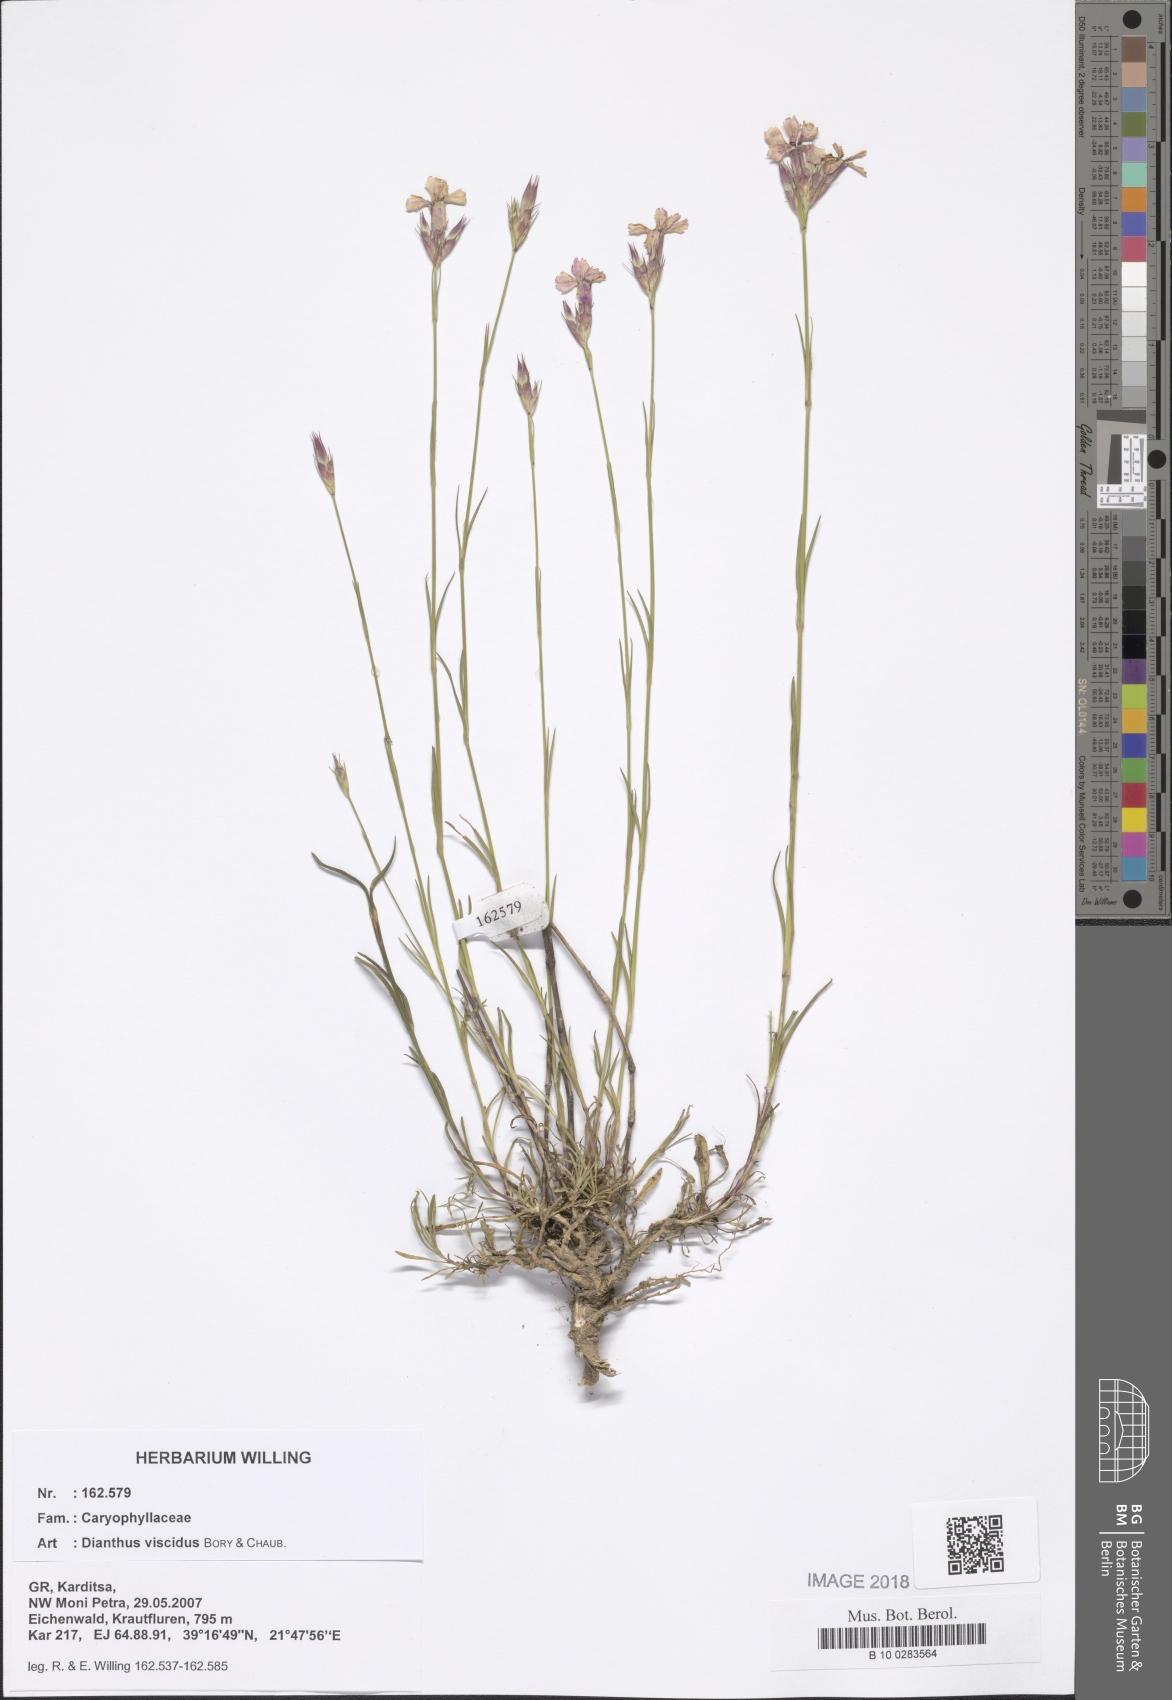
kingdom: Plantae
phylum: Tracheophyta
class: Magnoliopsida
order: Caryophyllales
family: Caryophyllaceae
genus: Dianthus
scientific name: Dianthus viscidus
